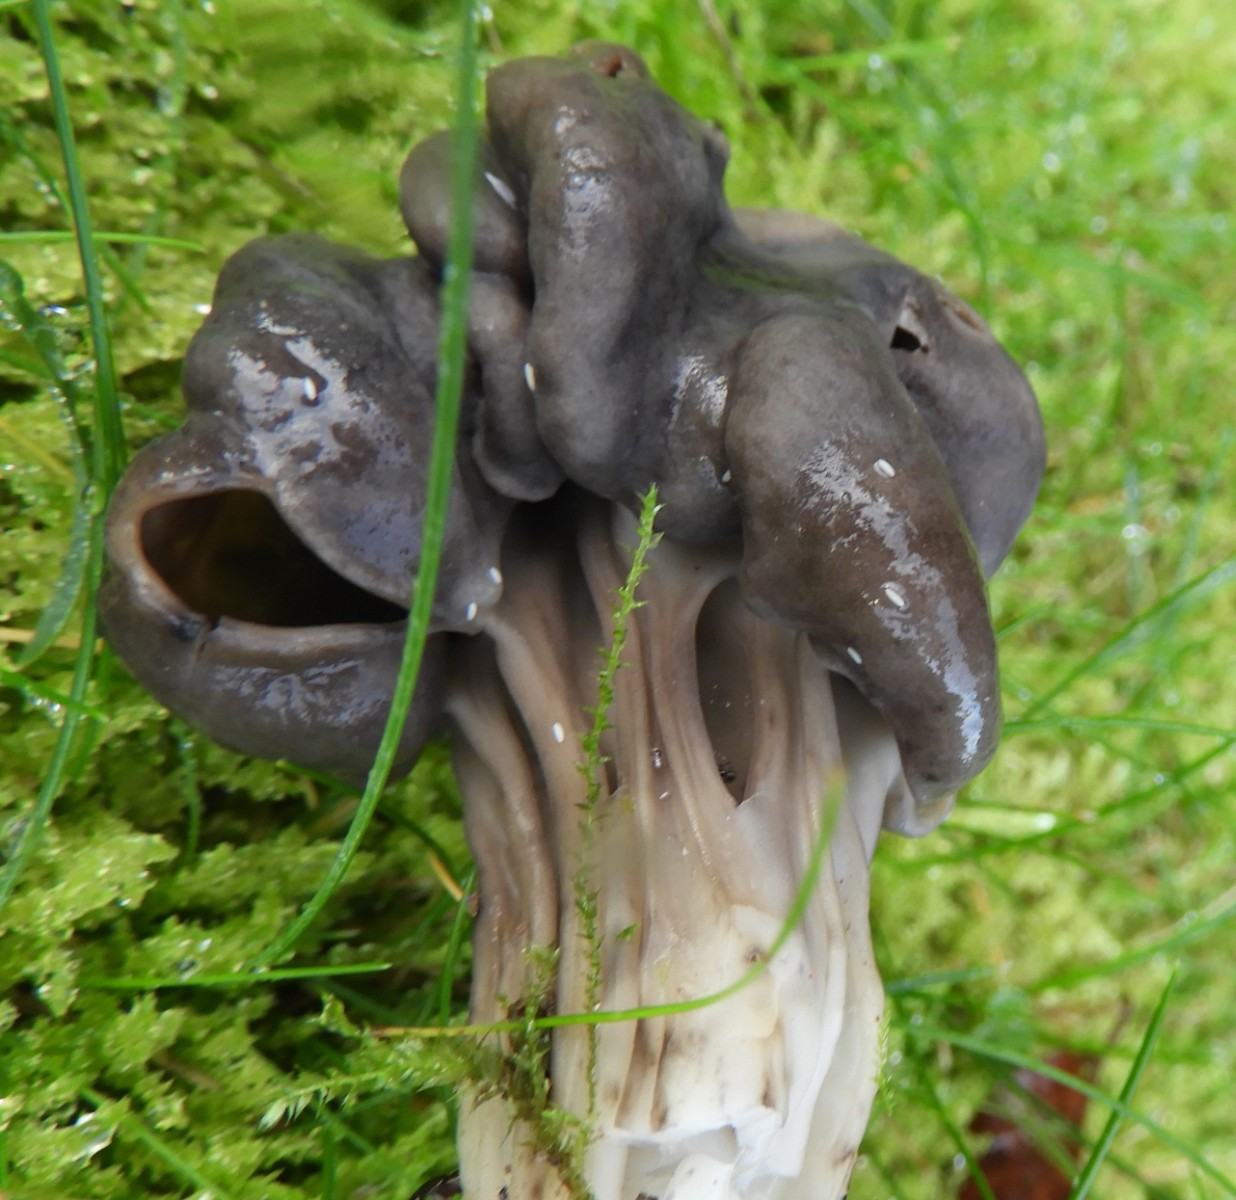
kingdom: Fungi
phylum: Ascomycota
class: Pezizomycetes
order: Pezizales
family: Helvellaceae
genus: Helvella
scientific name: Helvella lacunosa
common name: grubet foldhat
